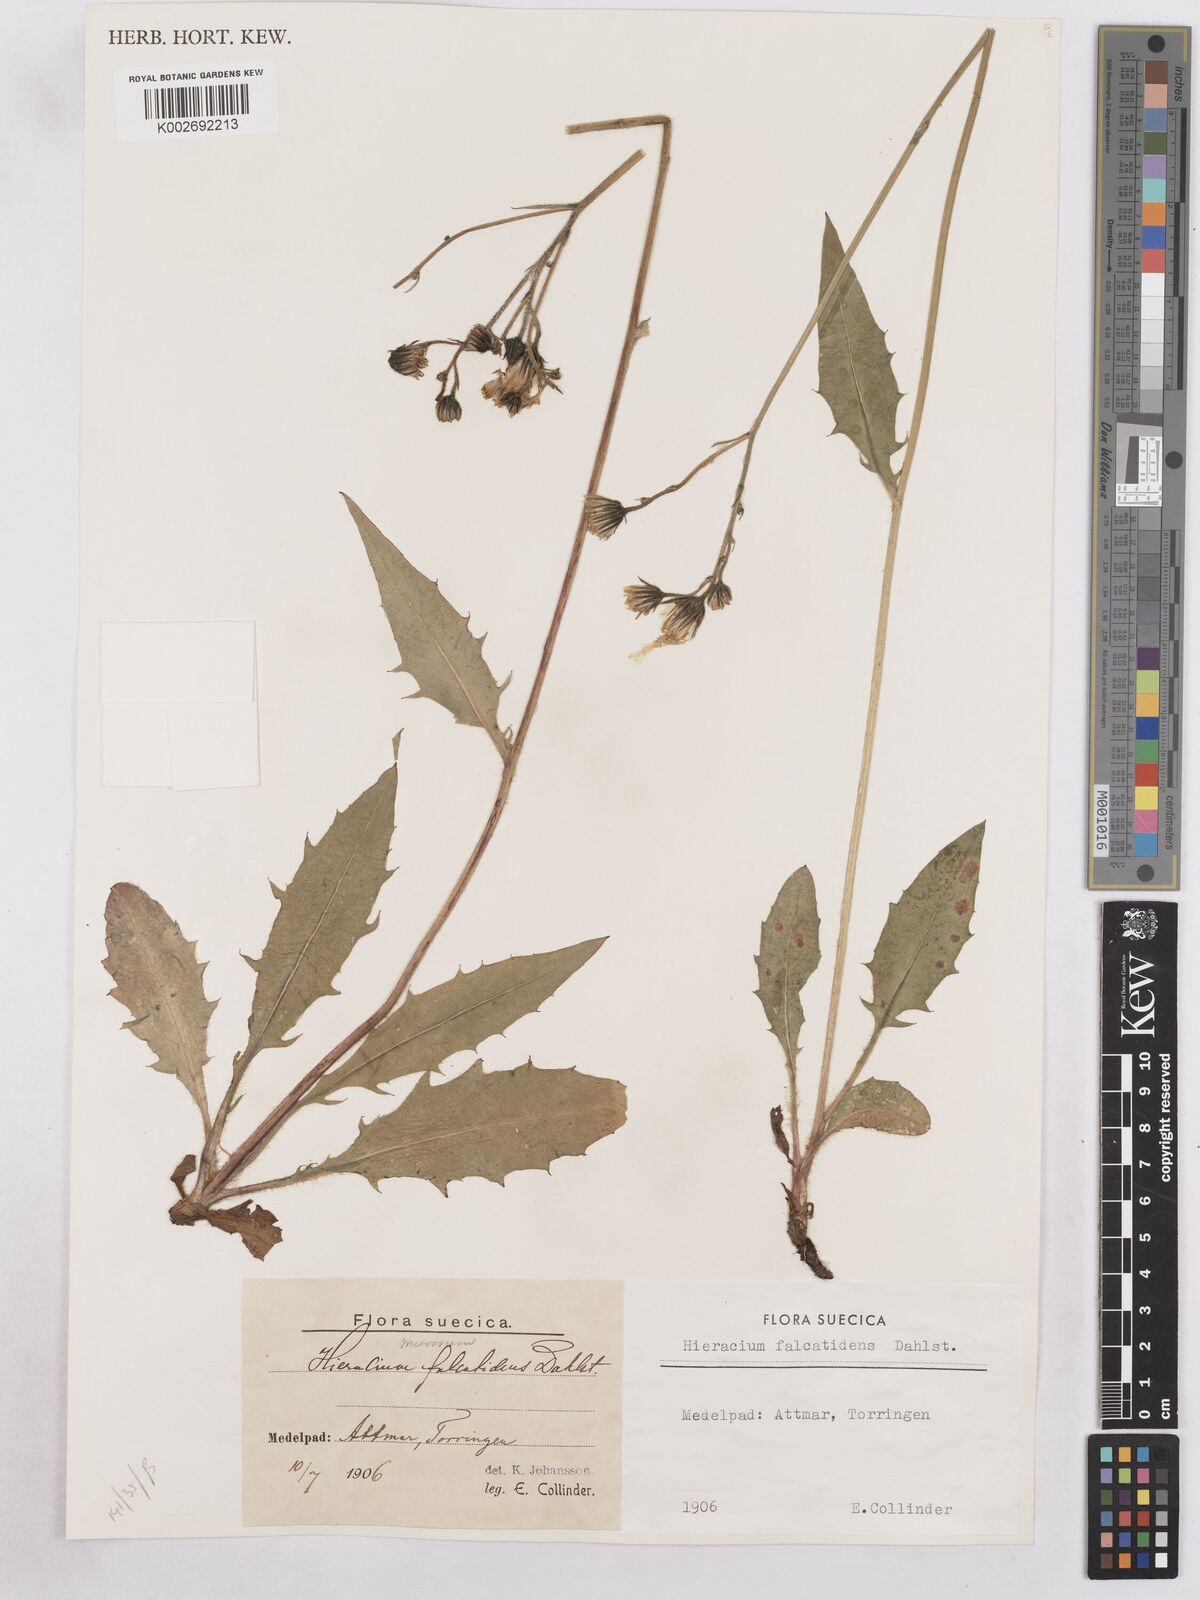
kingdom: Plantae
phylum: Tracheophyta
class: Magnoliopsida
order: Asterales
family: Asteraceae
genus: Hieracium
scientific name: Hieracium diaphanoides
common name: Fine-bracted hawkweed
